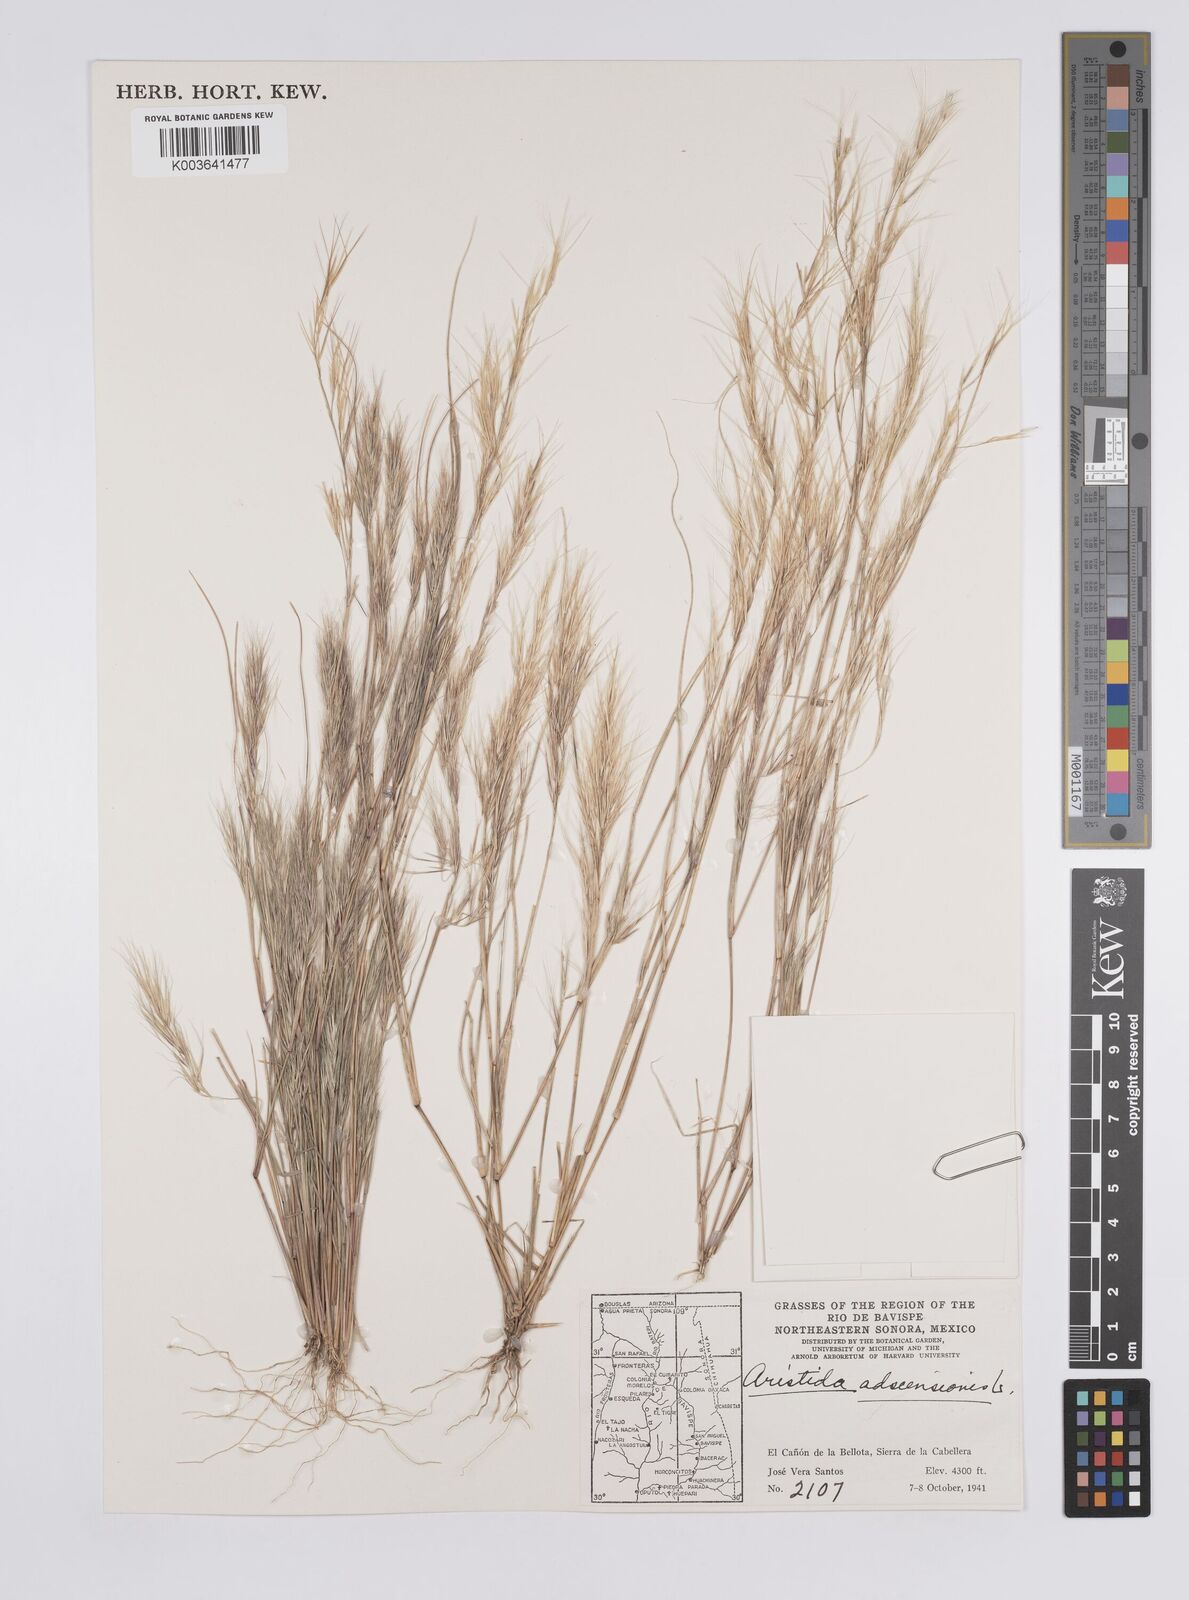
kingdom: Plantae
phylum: Tracheophyta
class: Liliopsida
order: Poales
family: Poaceae
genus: Aristida
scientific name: Aristida adscensionis
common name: Sixweeks threeawn
